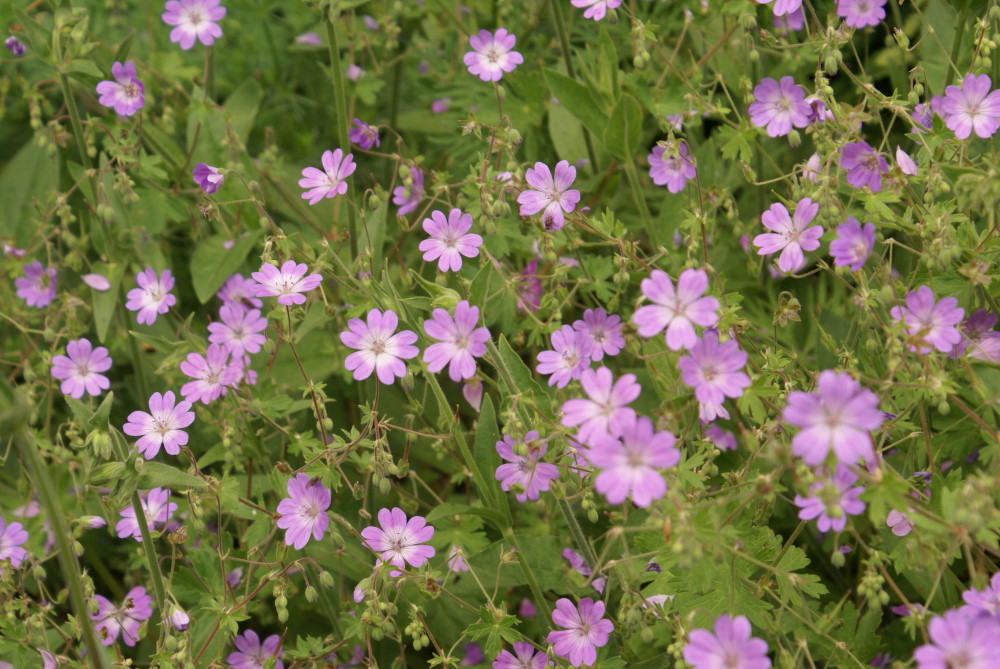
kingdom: Plantae
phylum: Tracheophyta
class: Magnoliopsida
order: Geraniales
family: Geraniaceae
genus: Geranium
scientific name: Geranium pyrenaicum
